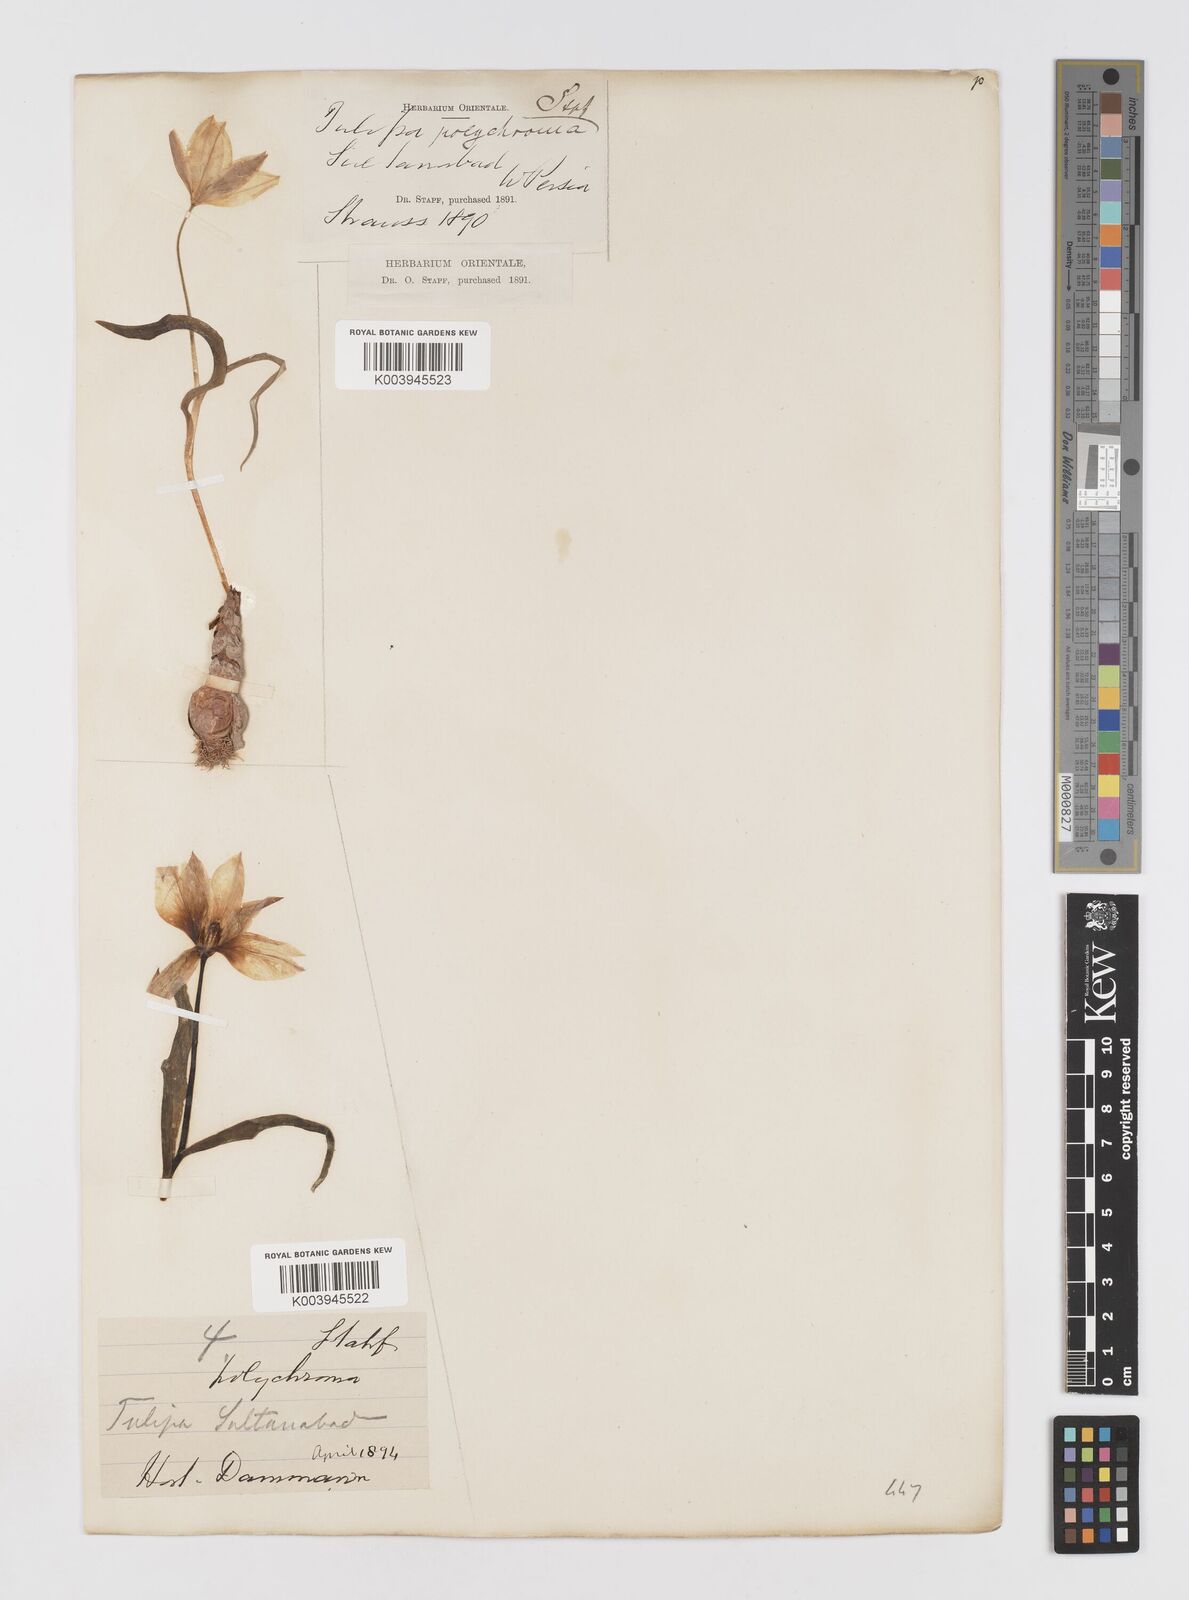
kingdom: Plantae
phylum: Tracheophyta
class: Liliopsida
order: Liliales
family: Liliaceae
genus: Tulipa
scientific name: Tulipa biflora
